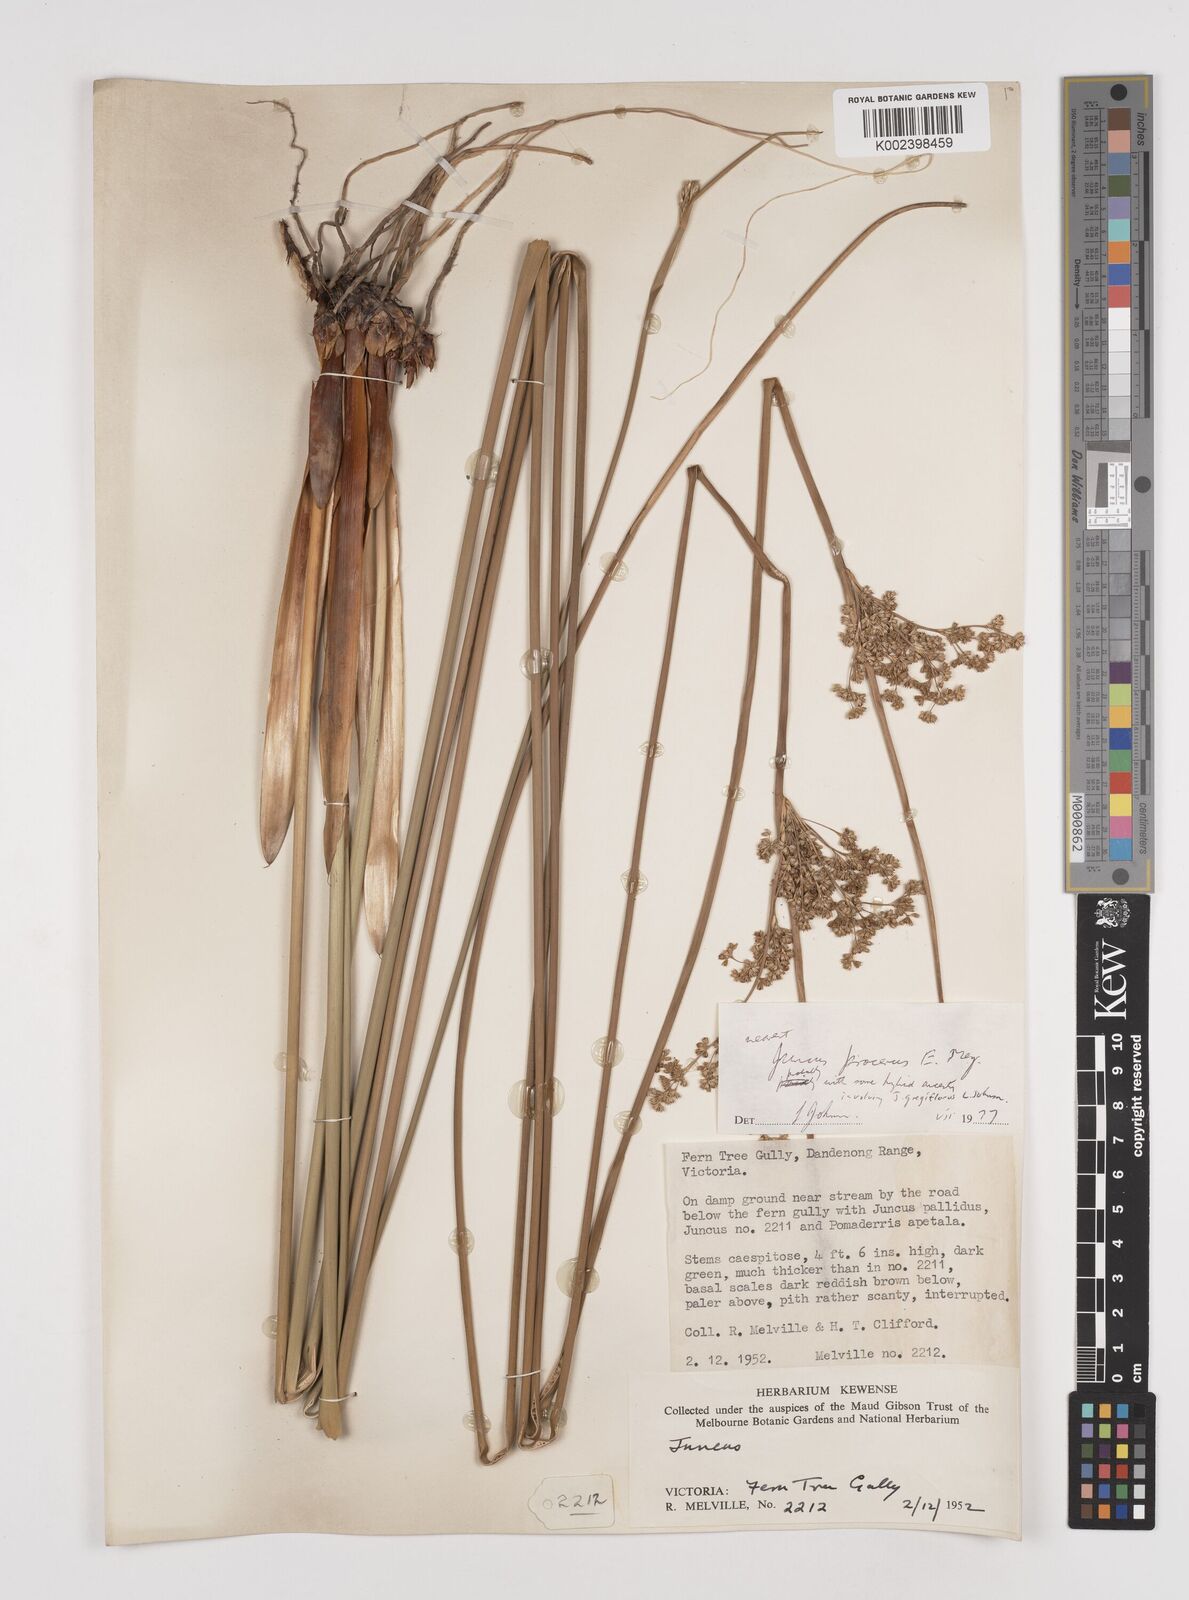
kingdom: Plantae
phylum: Tracheophyta
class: Liliopsida
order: Poales
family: Juncaceae
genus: Juncus
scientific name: Juncus procerus
